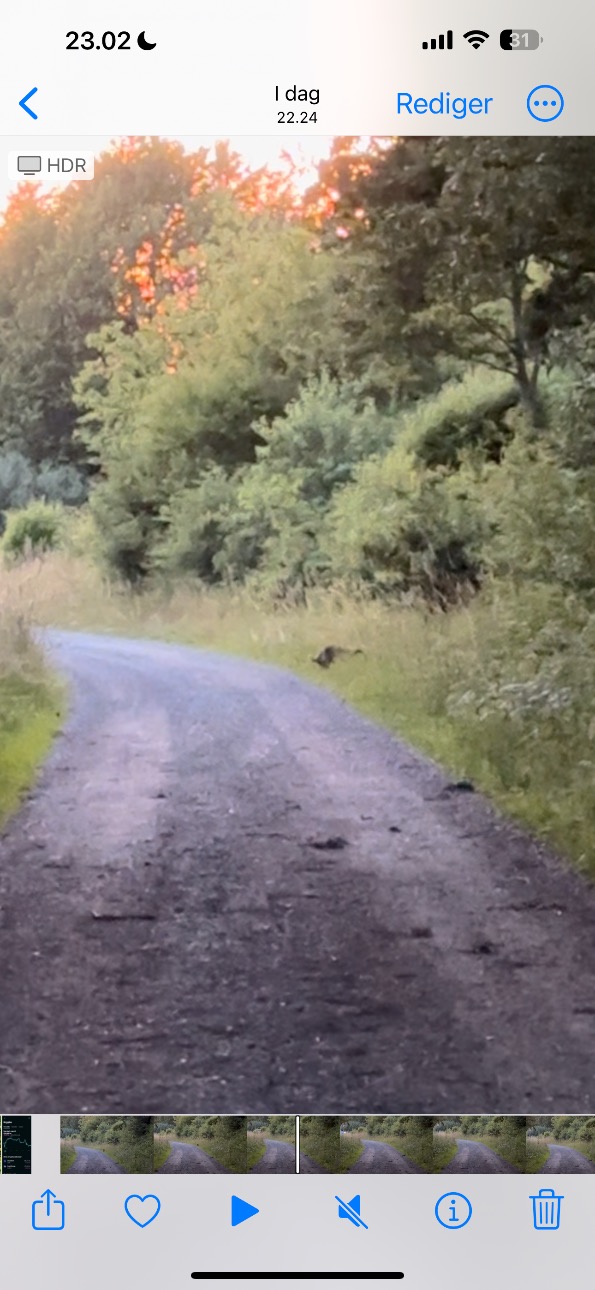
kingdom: Animalia
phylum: Chordata
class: Mammalia
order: Carnivora
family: Canidae
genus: Nyctereutes
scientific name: Nyctereutes procyonoides
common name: Mårhund
